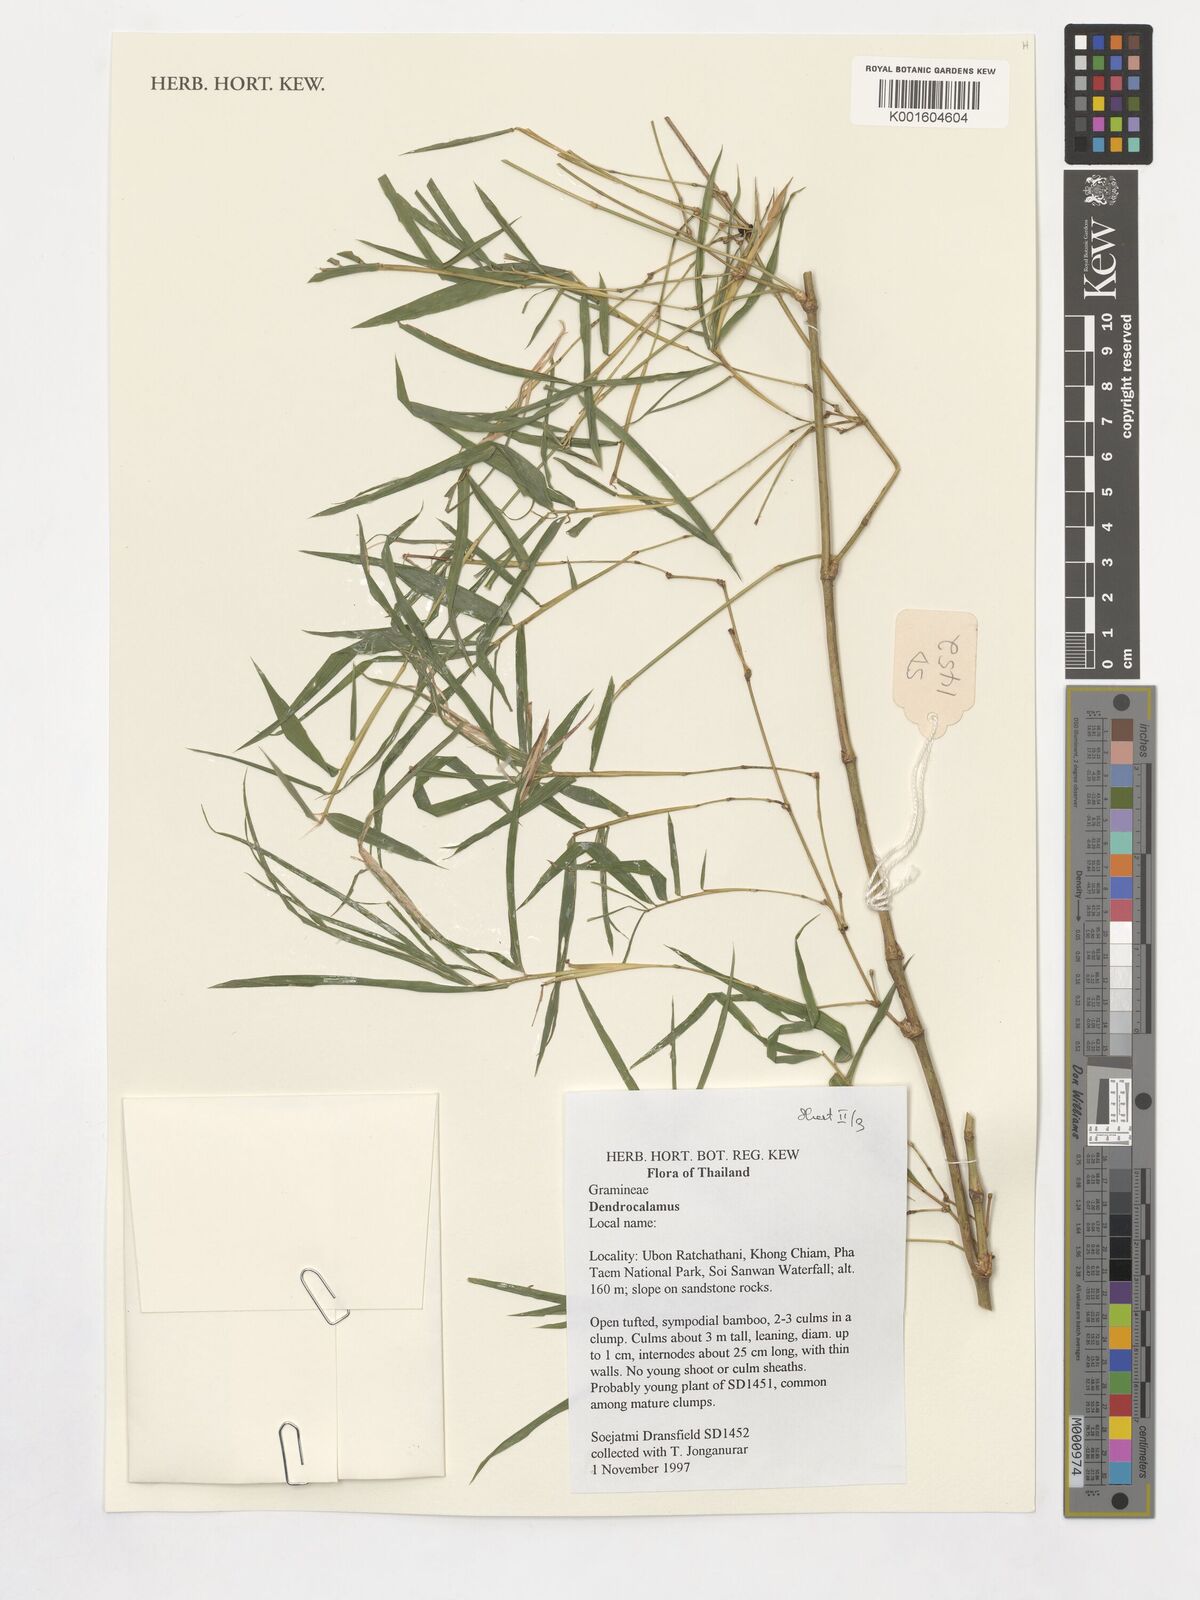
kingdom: Plantae
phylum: Tracheophyta
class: Liliopsida
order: Poales
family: Poaceae
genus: Dendrocalamus
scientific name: Dendrocalamus
